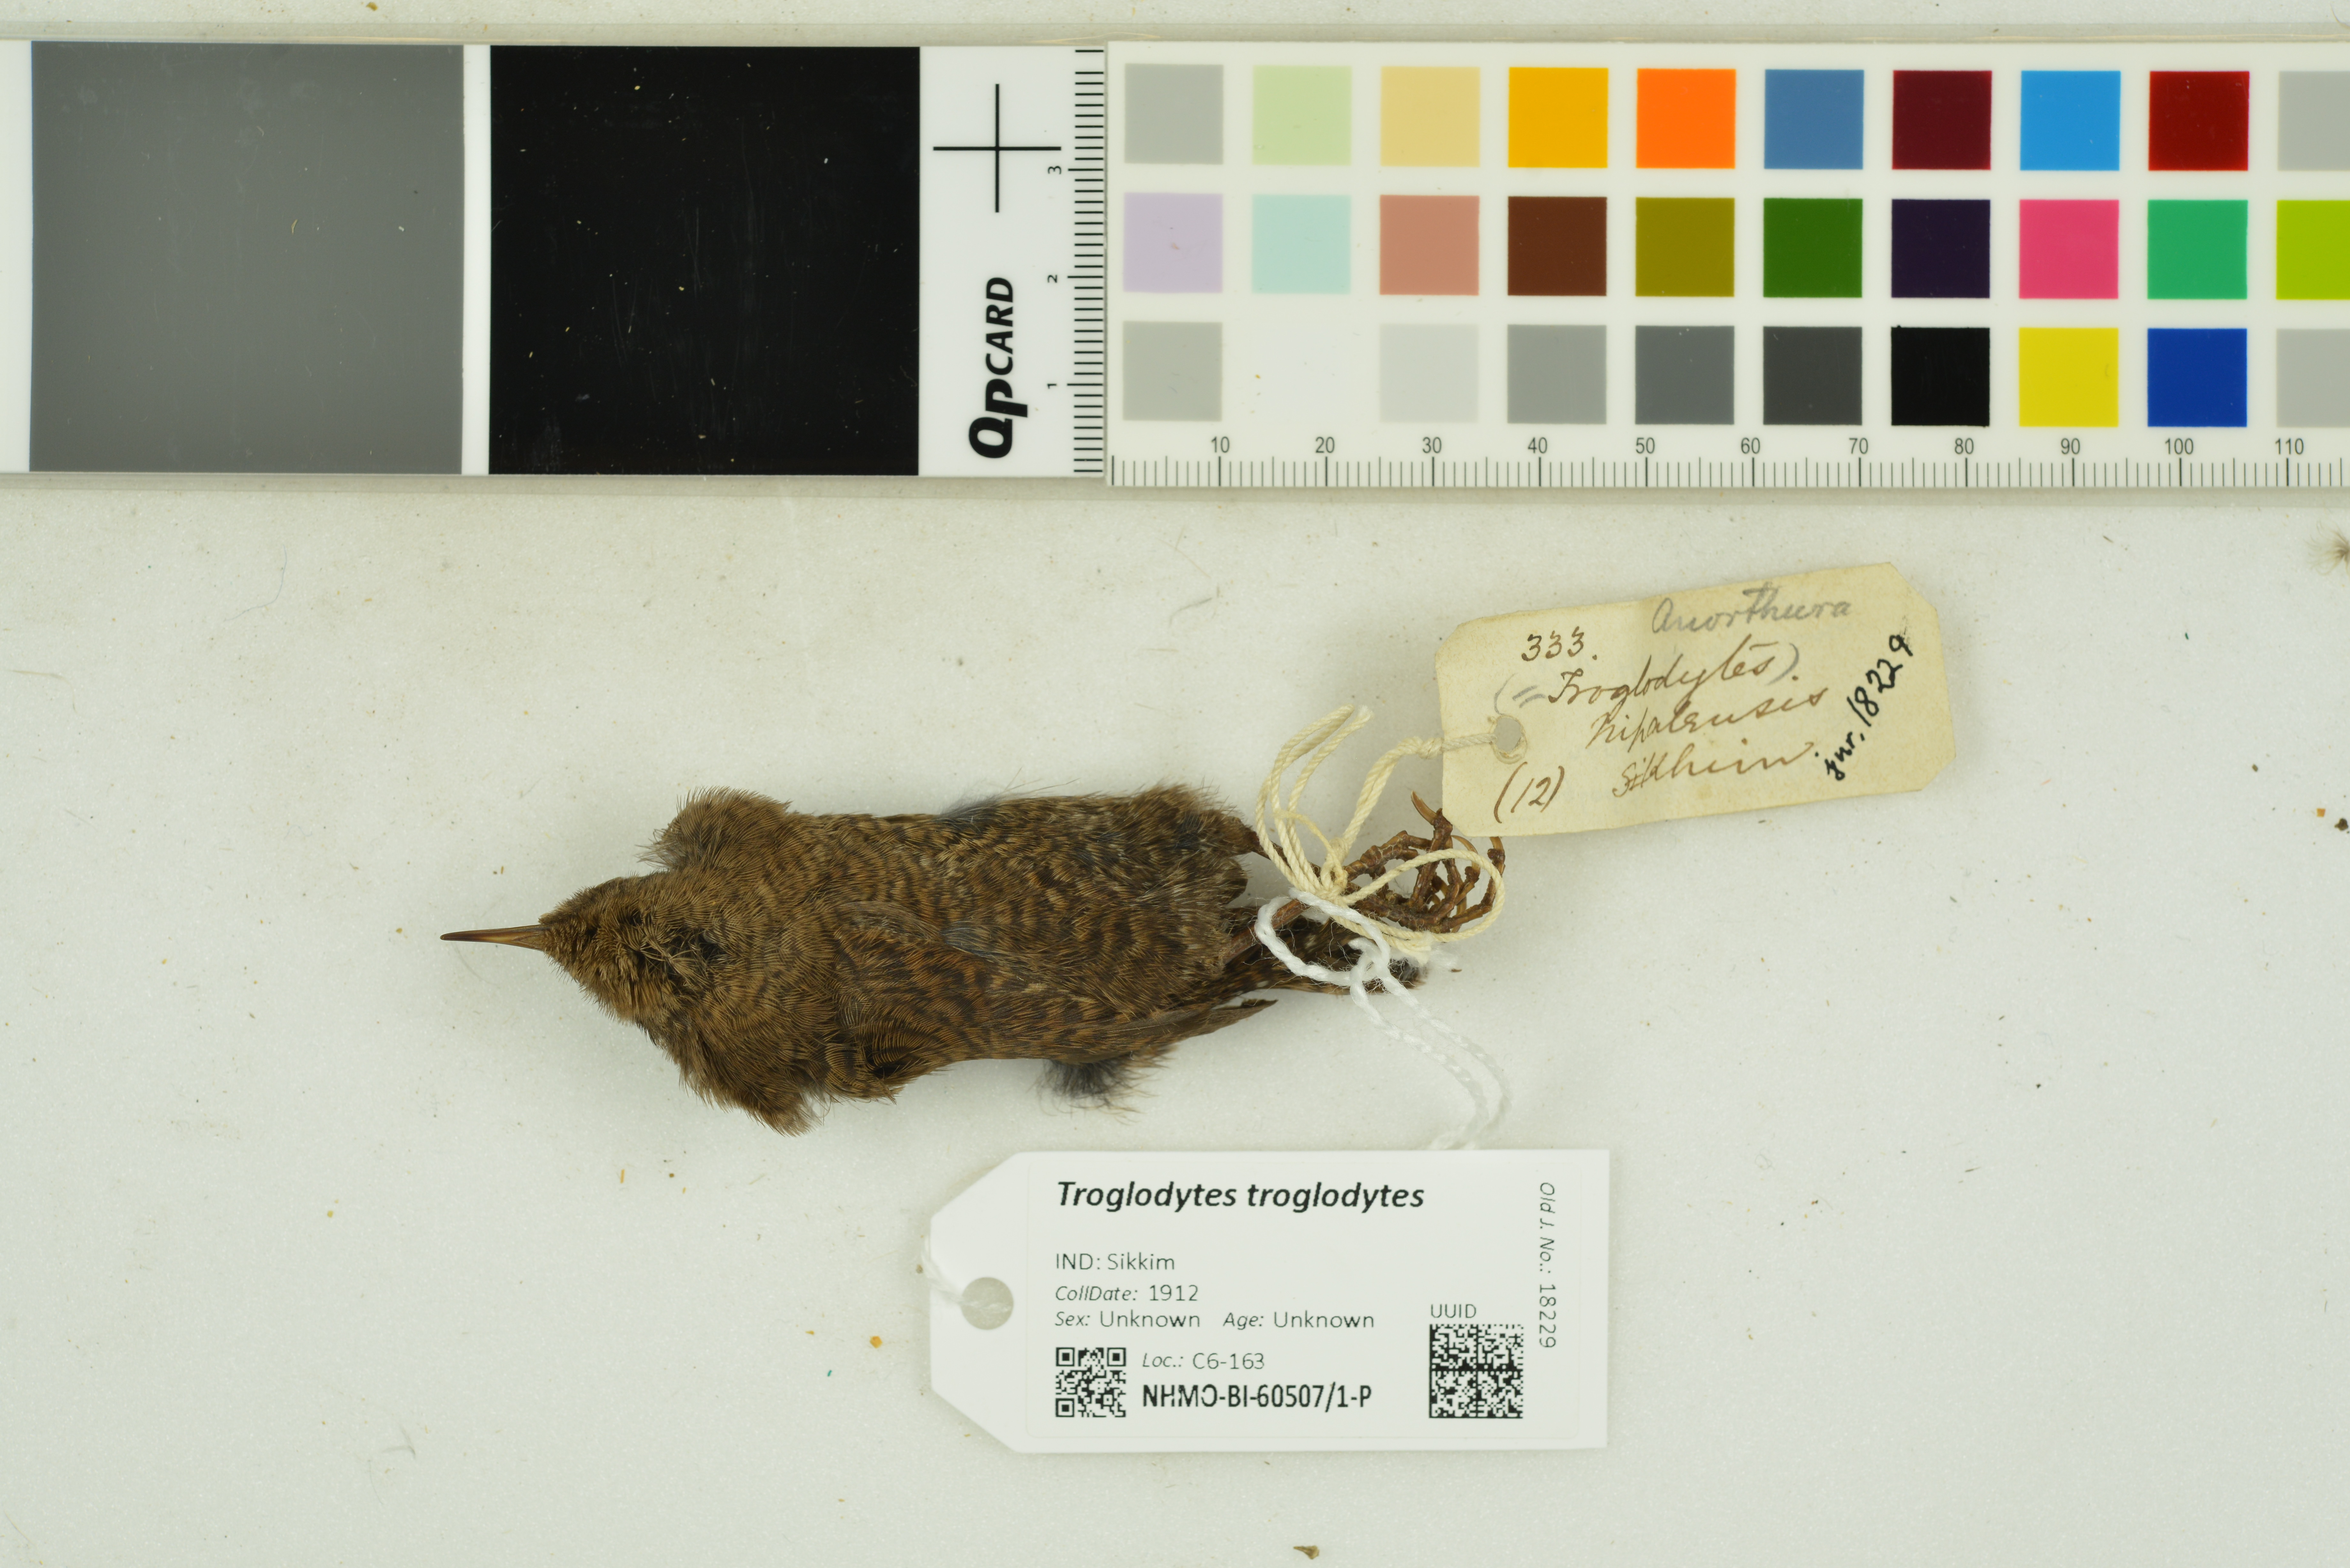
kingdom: Animalia
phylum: Chordata
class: Aves
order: Passeriformes
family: Troglodytidae
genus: Troglodytes
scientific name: Troglodytes troglodytes
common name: Eurasian wren
